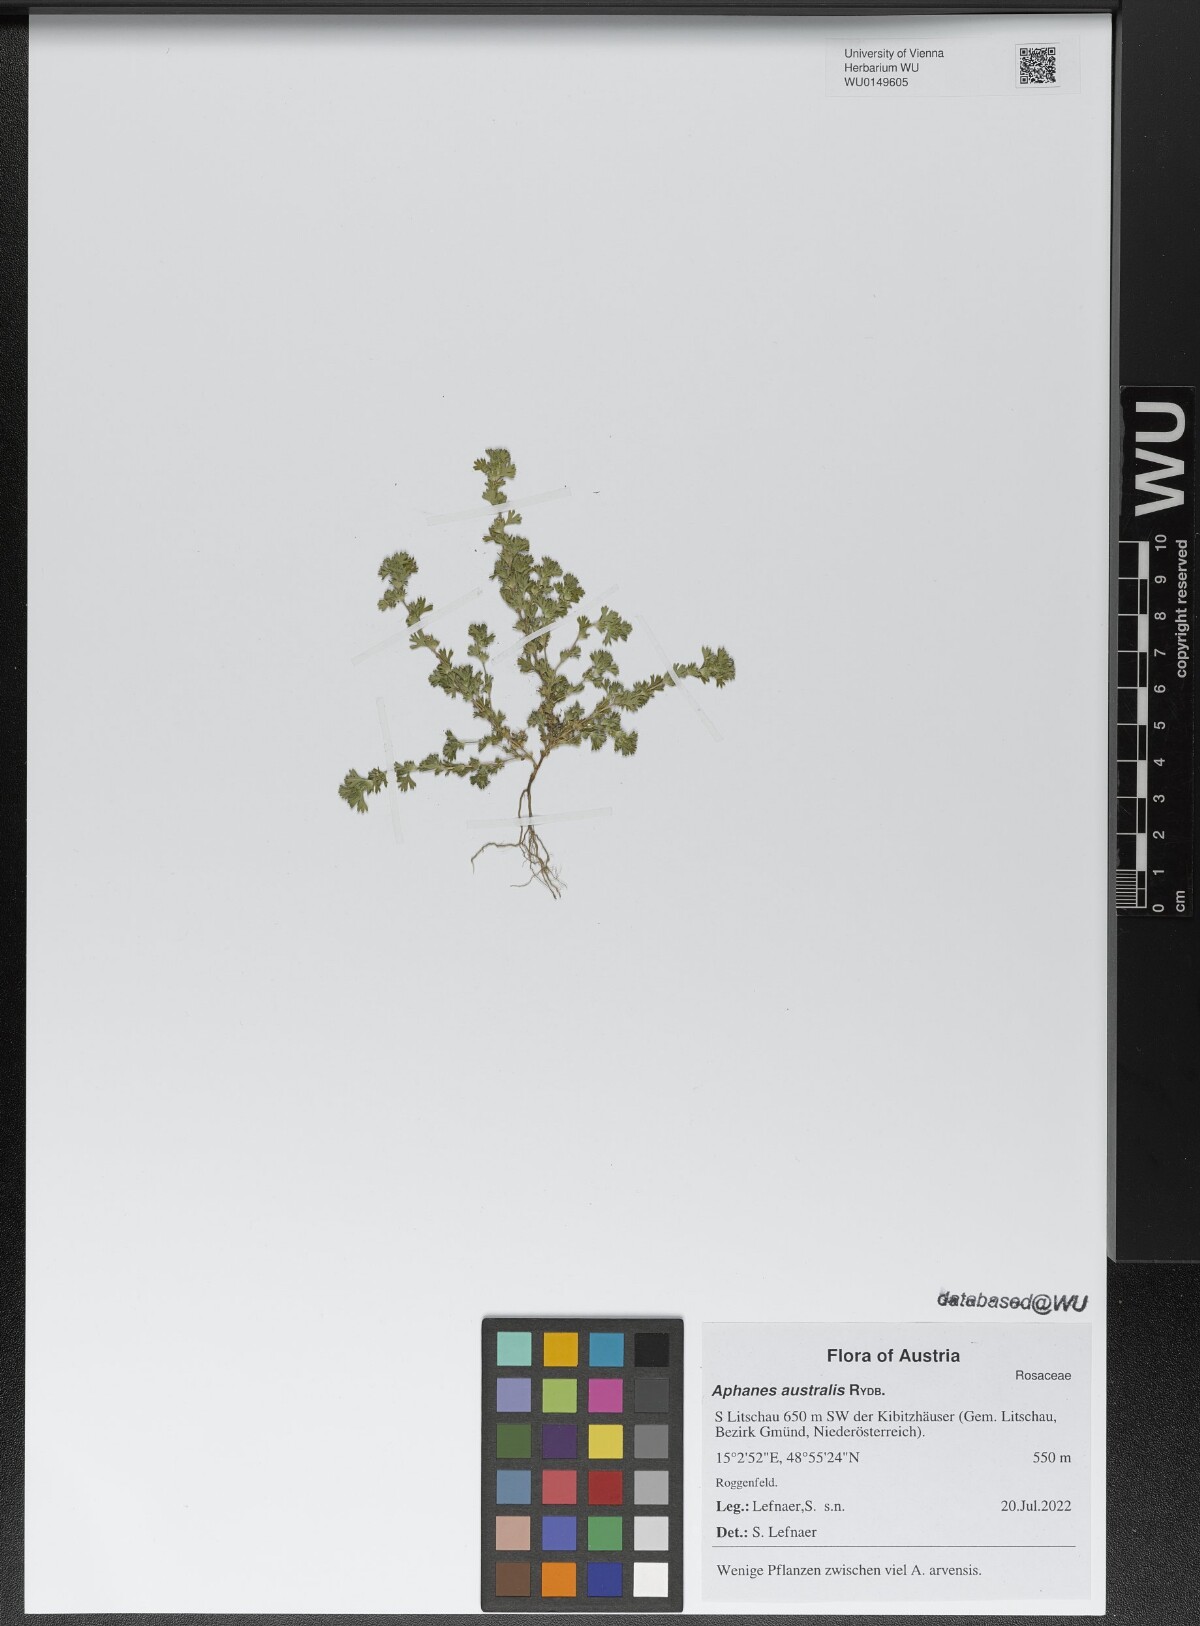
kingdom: Plantae
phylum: Tracheophyta
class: Magnoliopsida
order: Rosales
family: Rosaceae
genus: Aphanes
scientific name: Aphanes australis
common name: Slender parsley-piert
